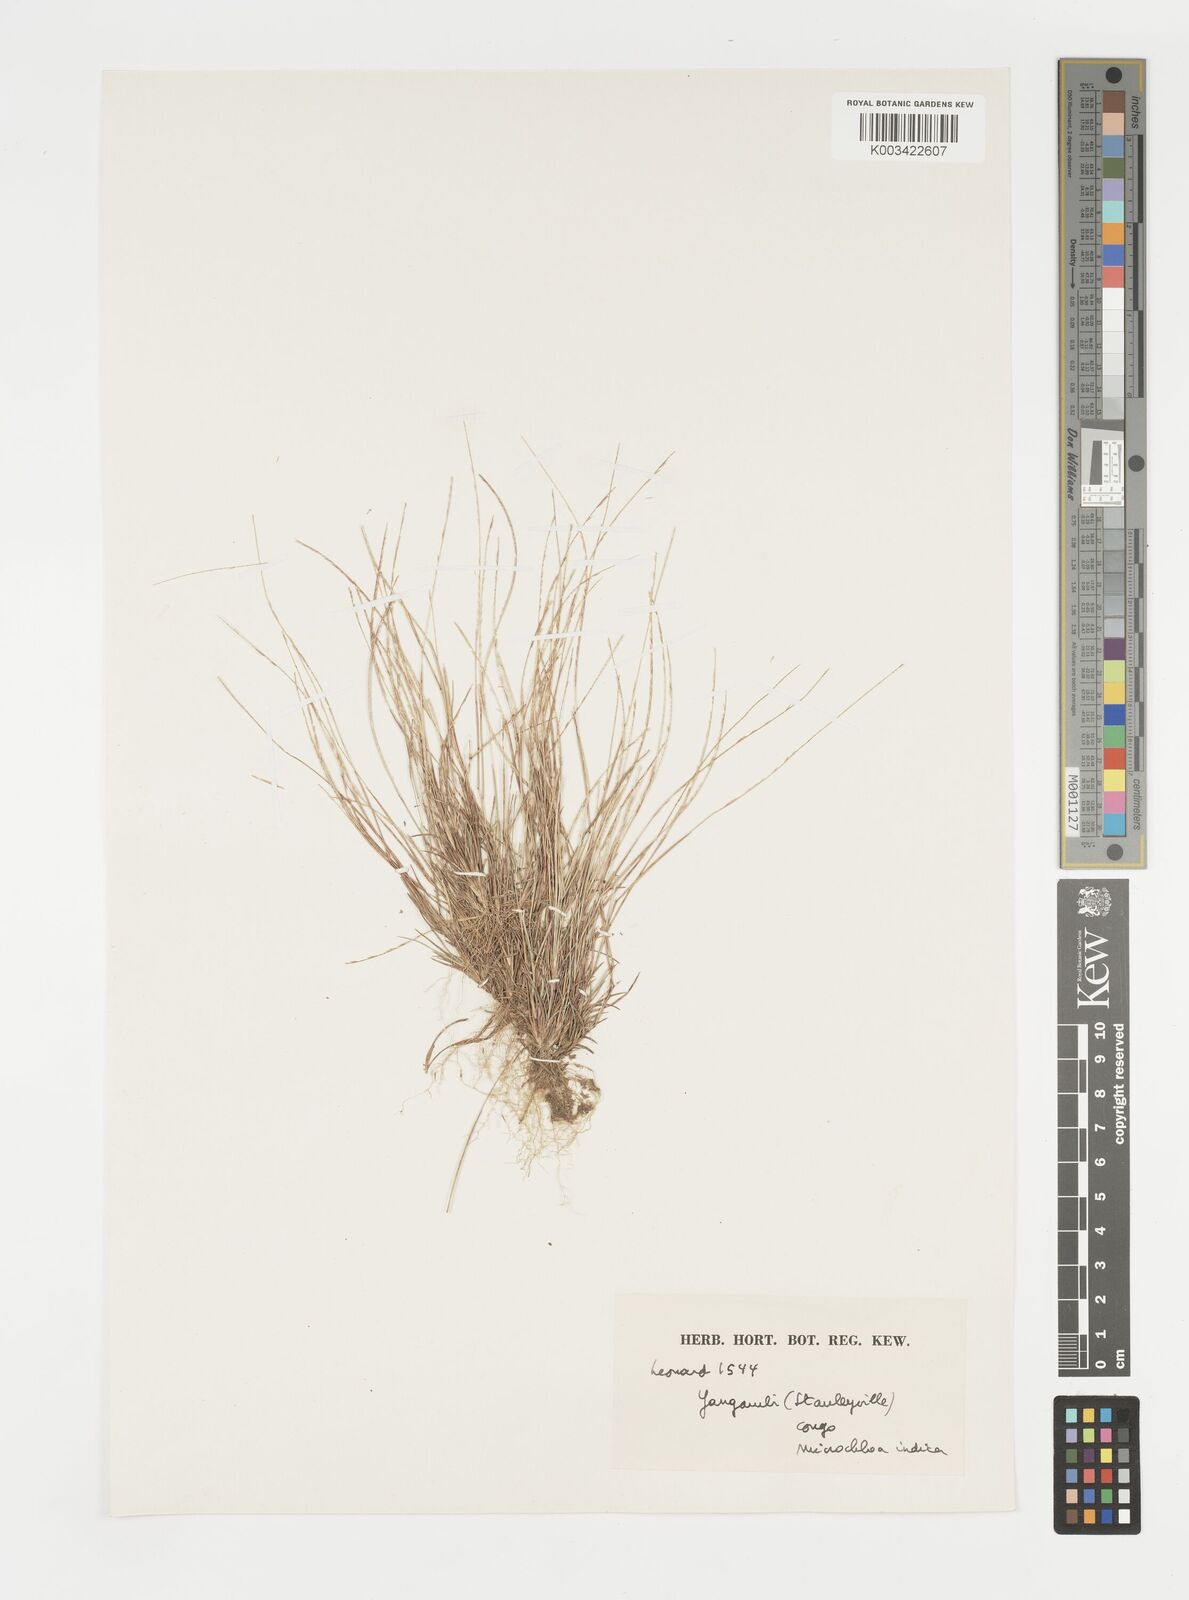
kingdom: Plantae
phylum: Tracheophyta
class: Liliopsida
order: Poales
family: Poaceae
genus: Microchloa
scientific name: Microchloa indica
